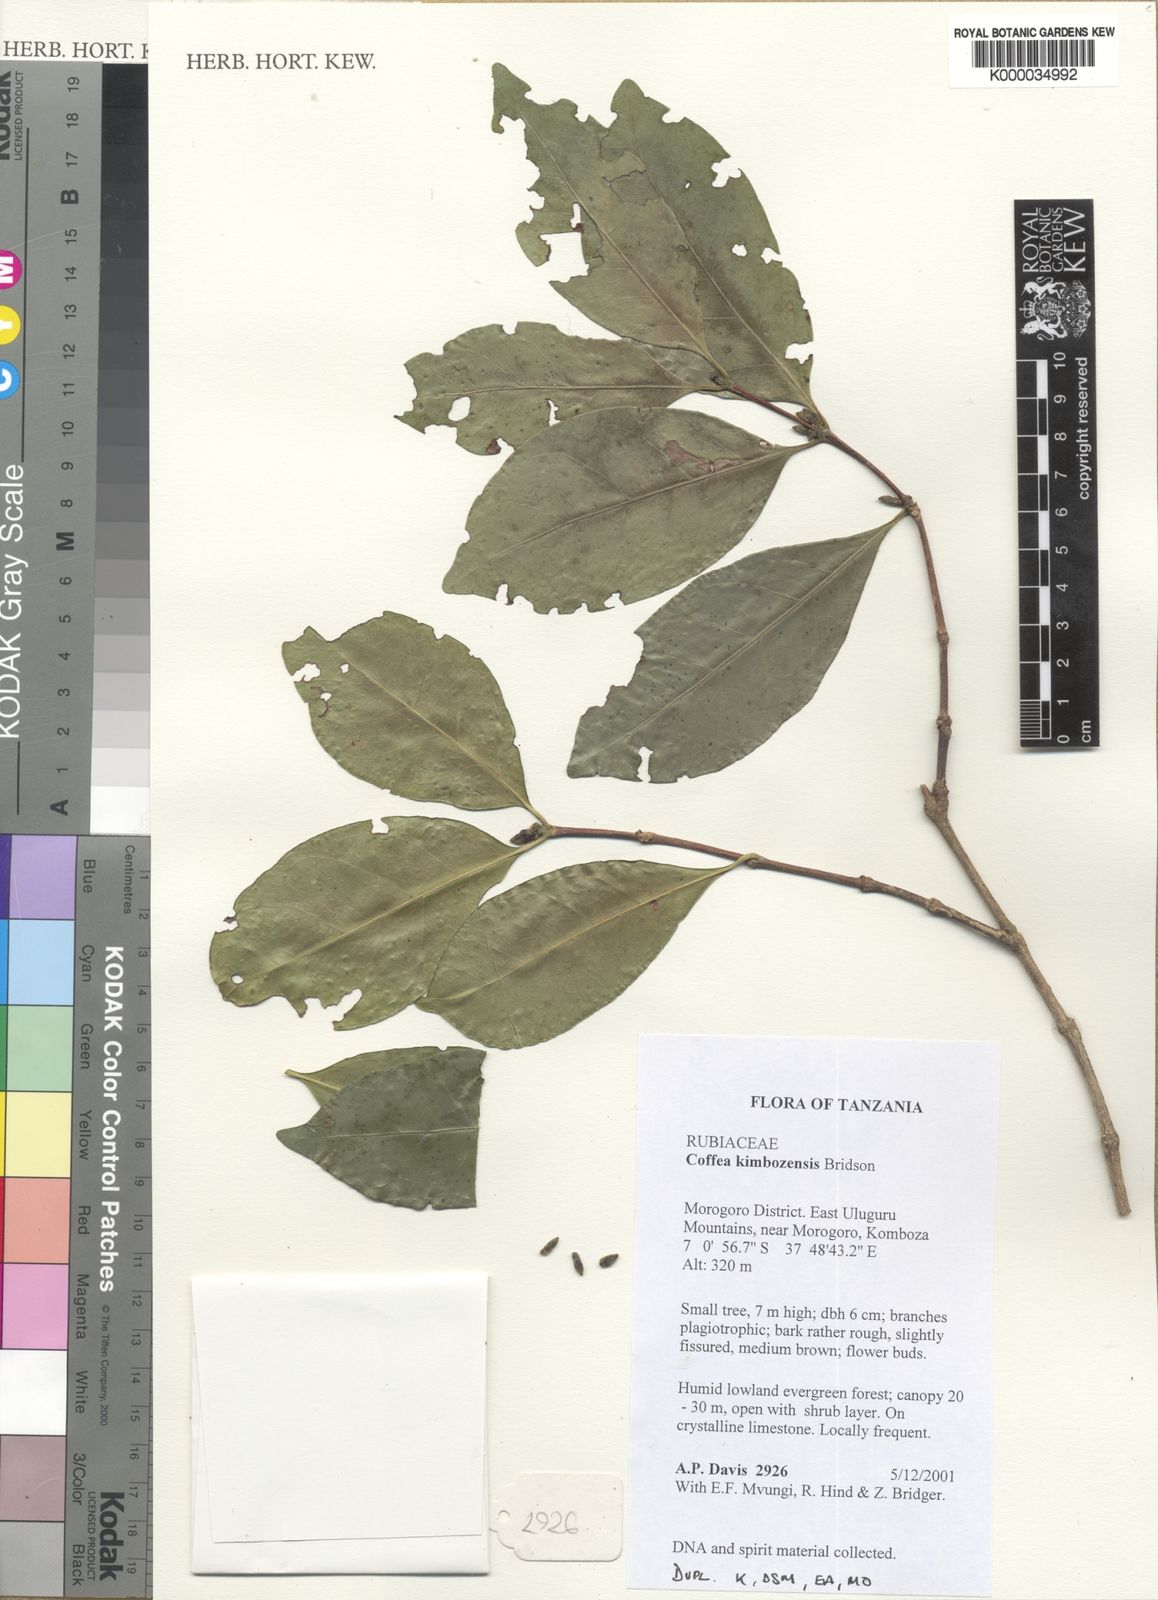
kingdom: Plantae
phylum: Tracheophyta
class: Magnoliopsida
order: Gentianales
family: Rubiaceae
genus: Coffea
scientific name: Coffea kimbozensis
